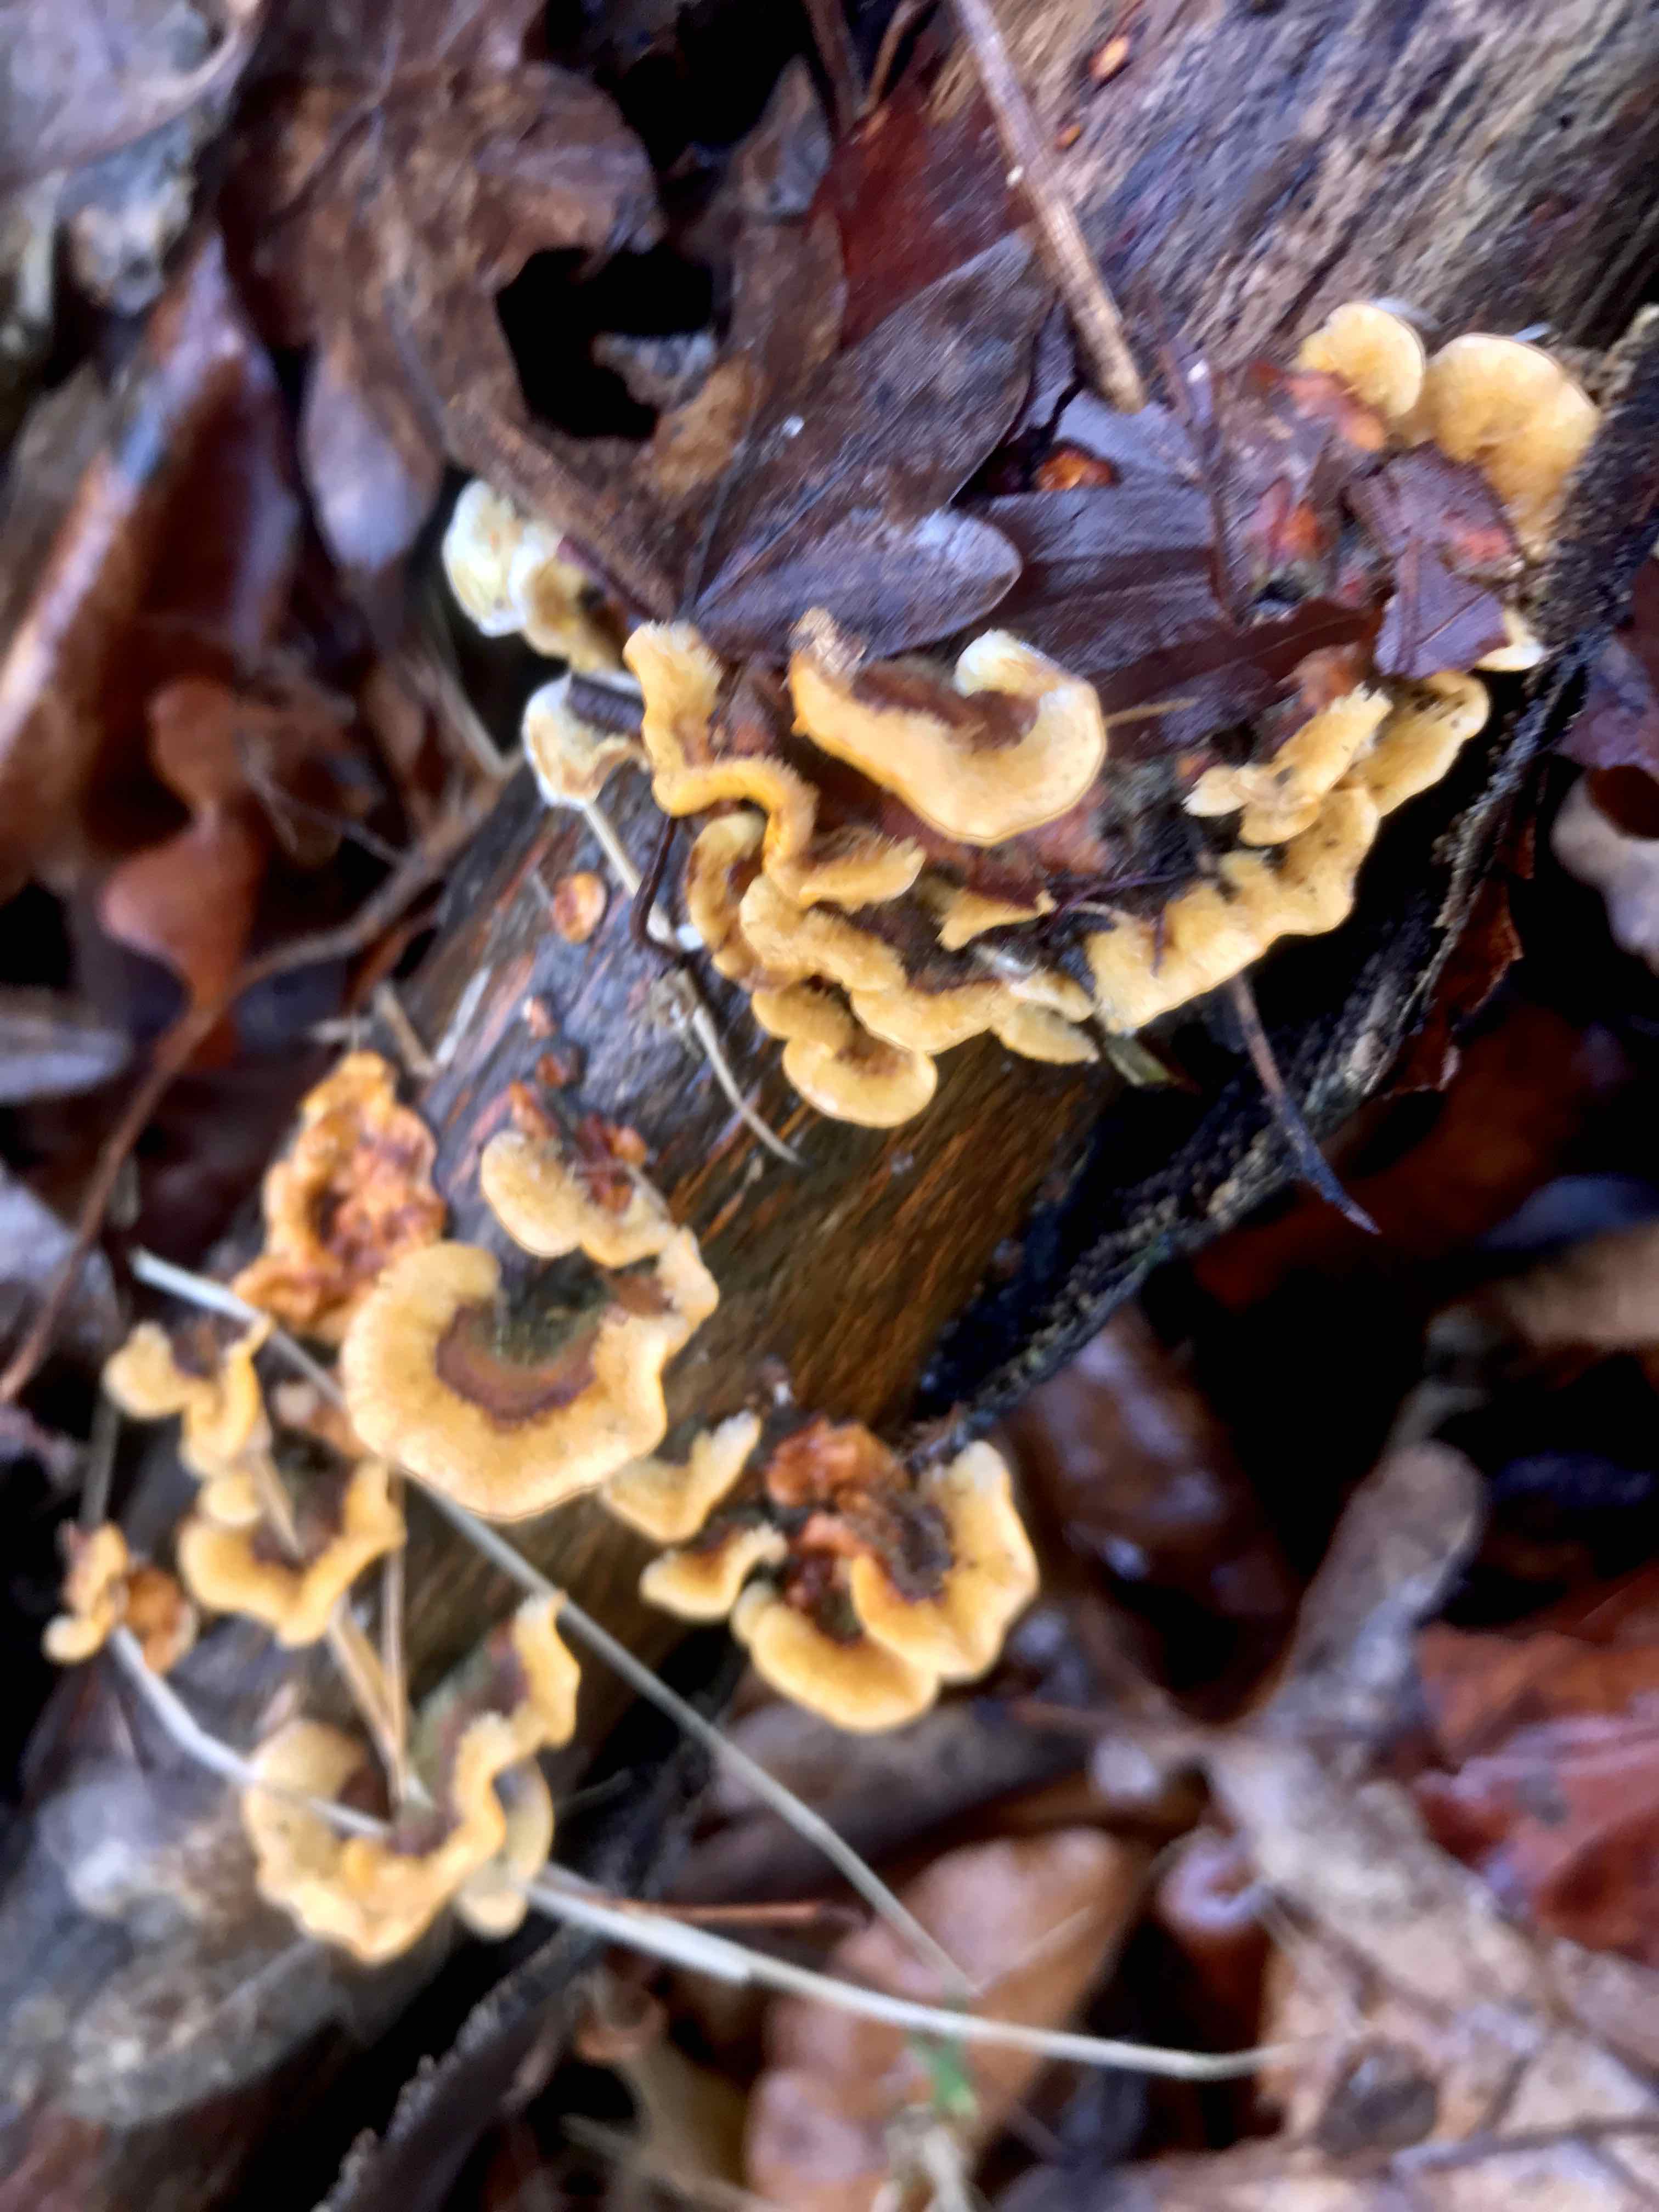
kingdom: Fungi
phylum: Basidiomycota
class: Agaricomycetes
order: Russulales
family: Stereaceae
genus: Stereum
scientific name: Stereum hirsutum
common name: håret lædersvamp
